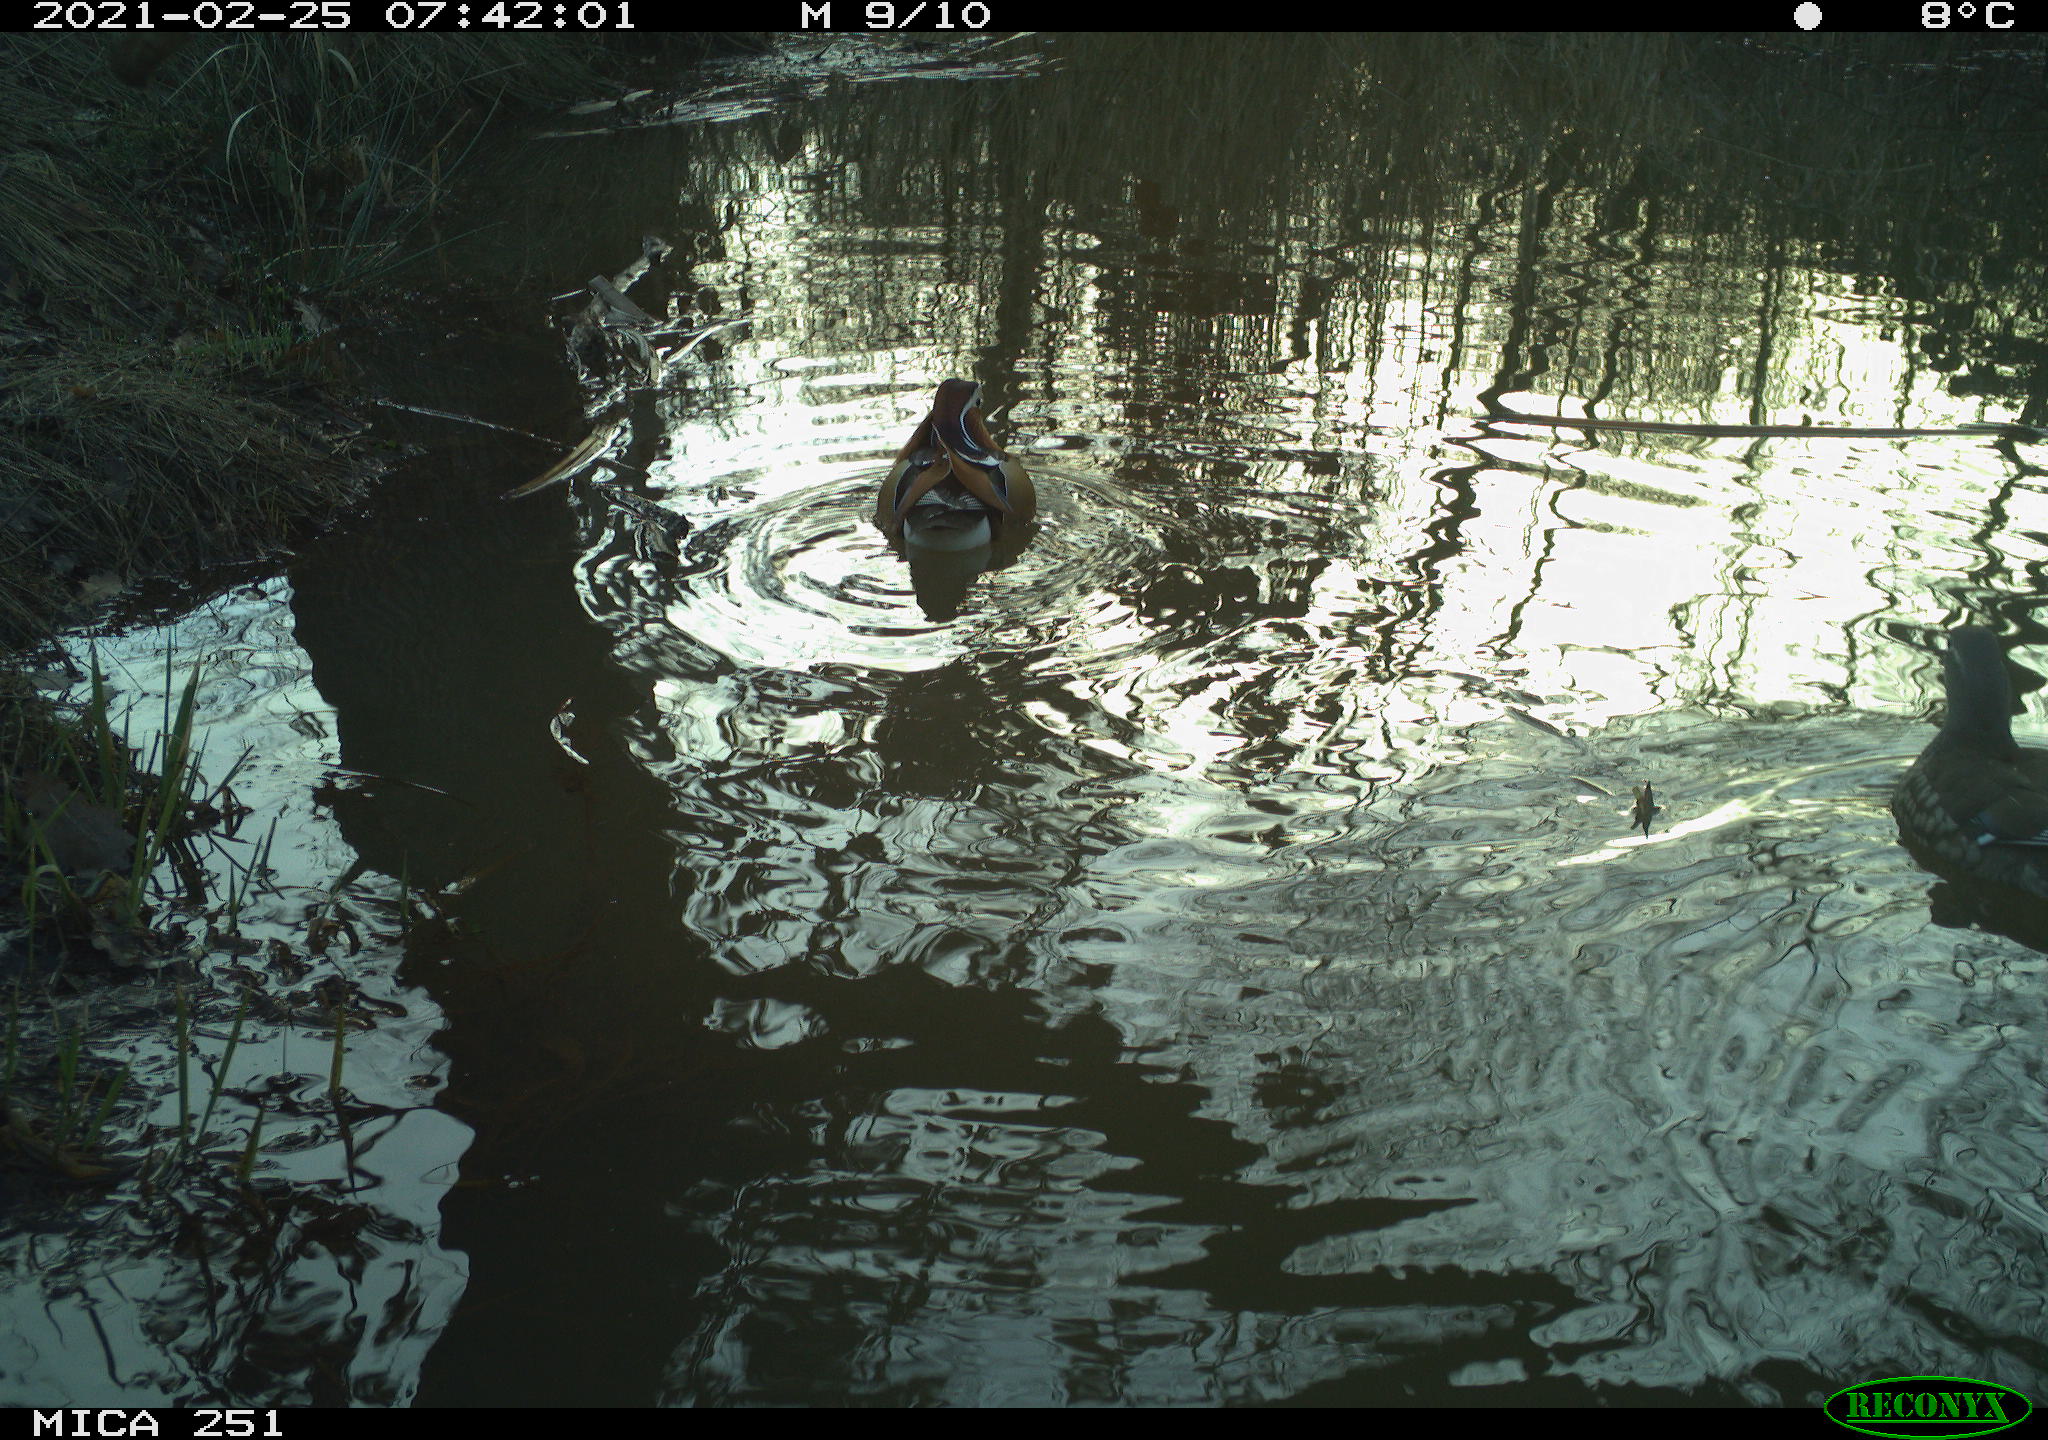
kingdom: Animalia
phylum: Chordata
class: Aves
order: Gruiformes
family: Rallidae
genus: Gallinula
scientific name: Gallinula chloropus
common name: Common moorhen
